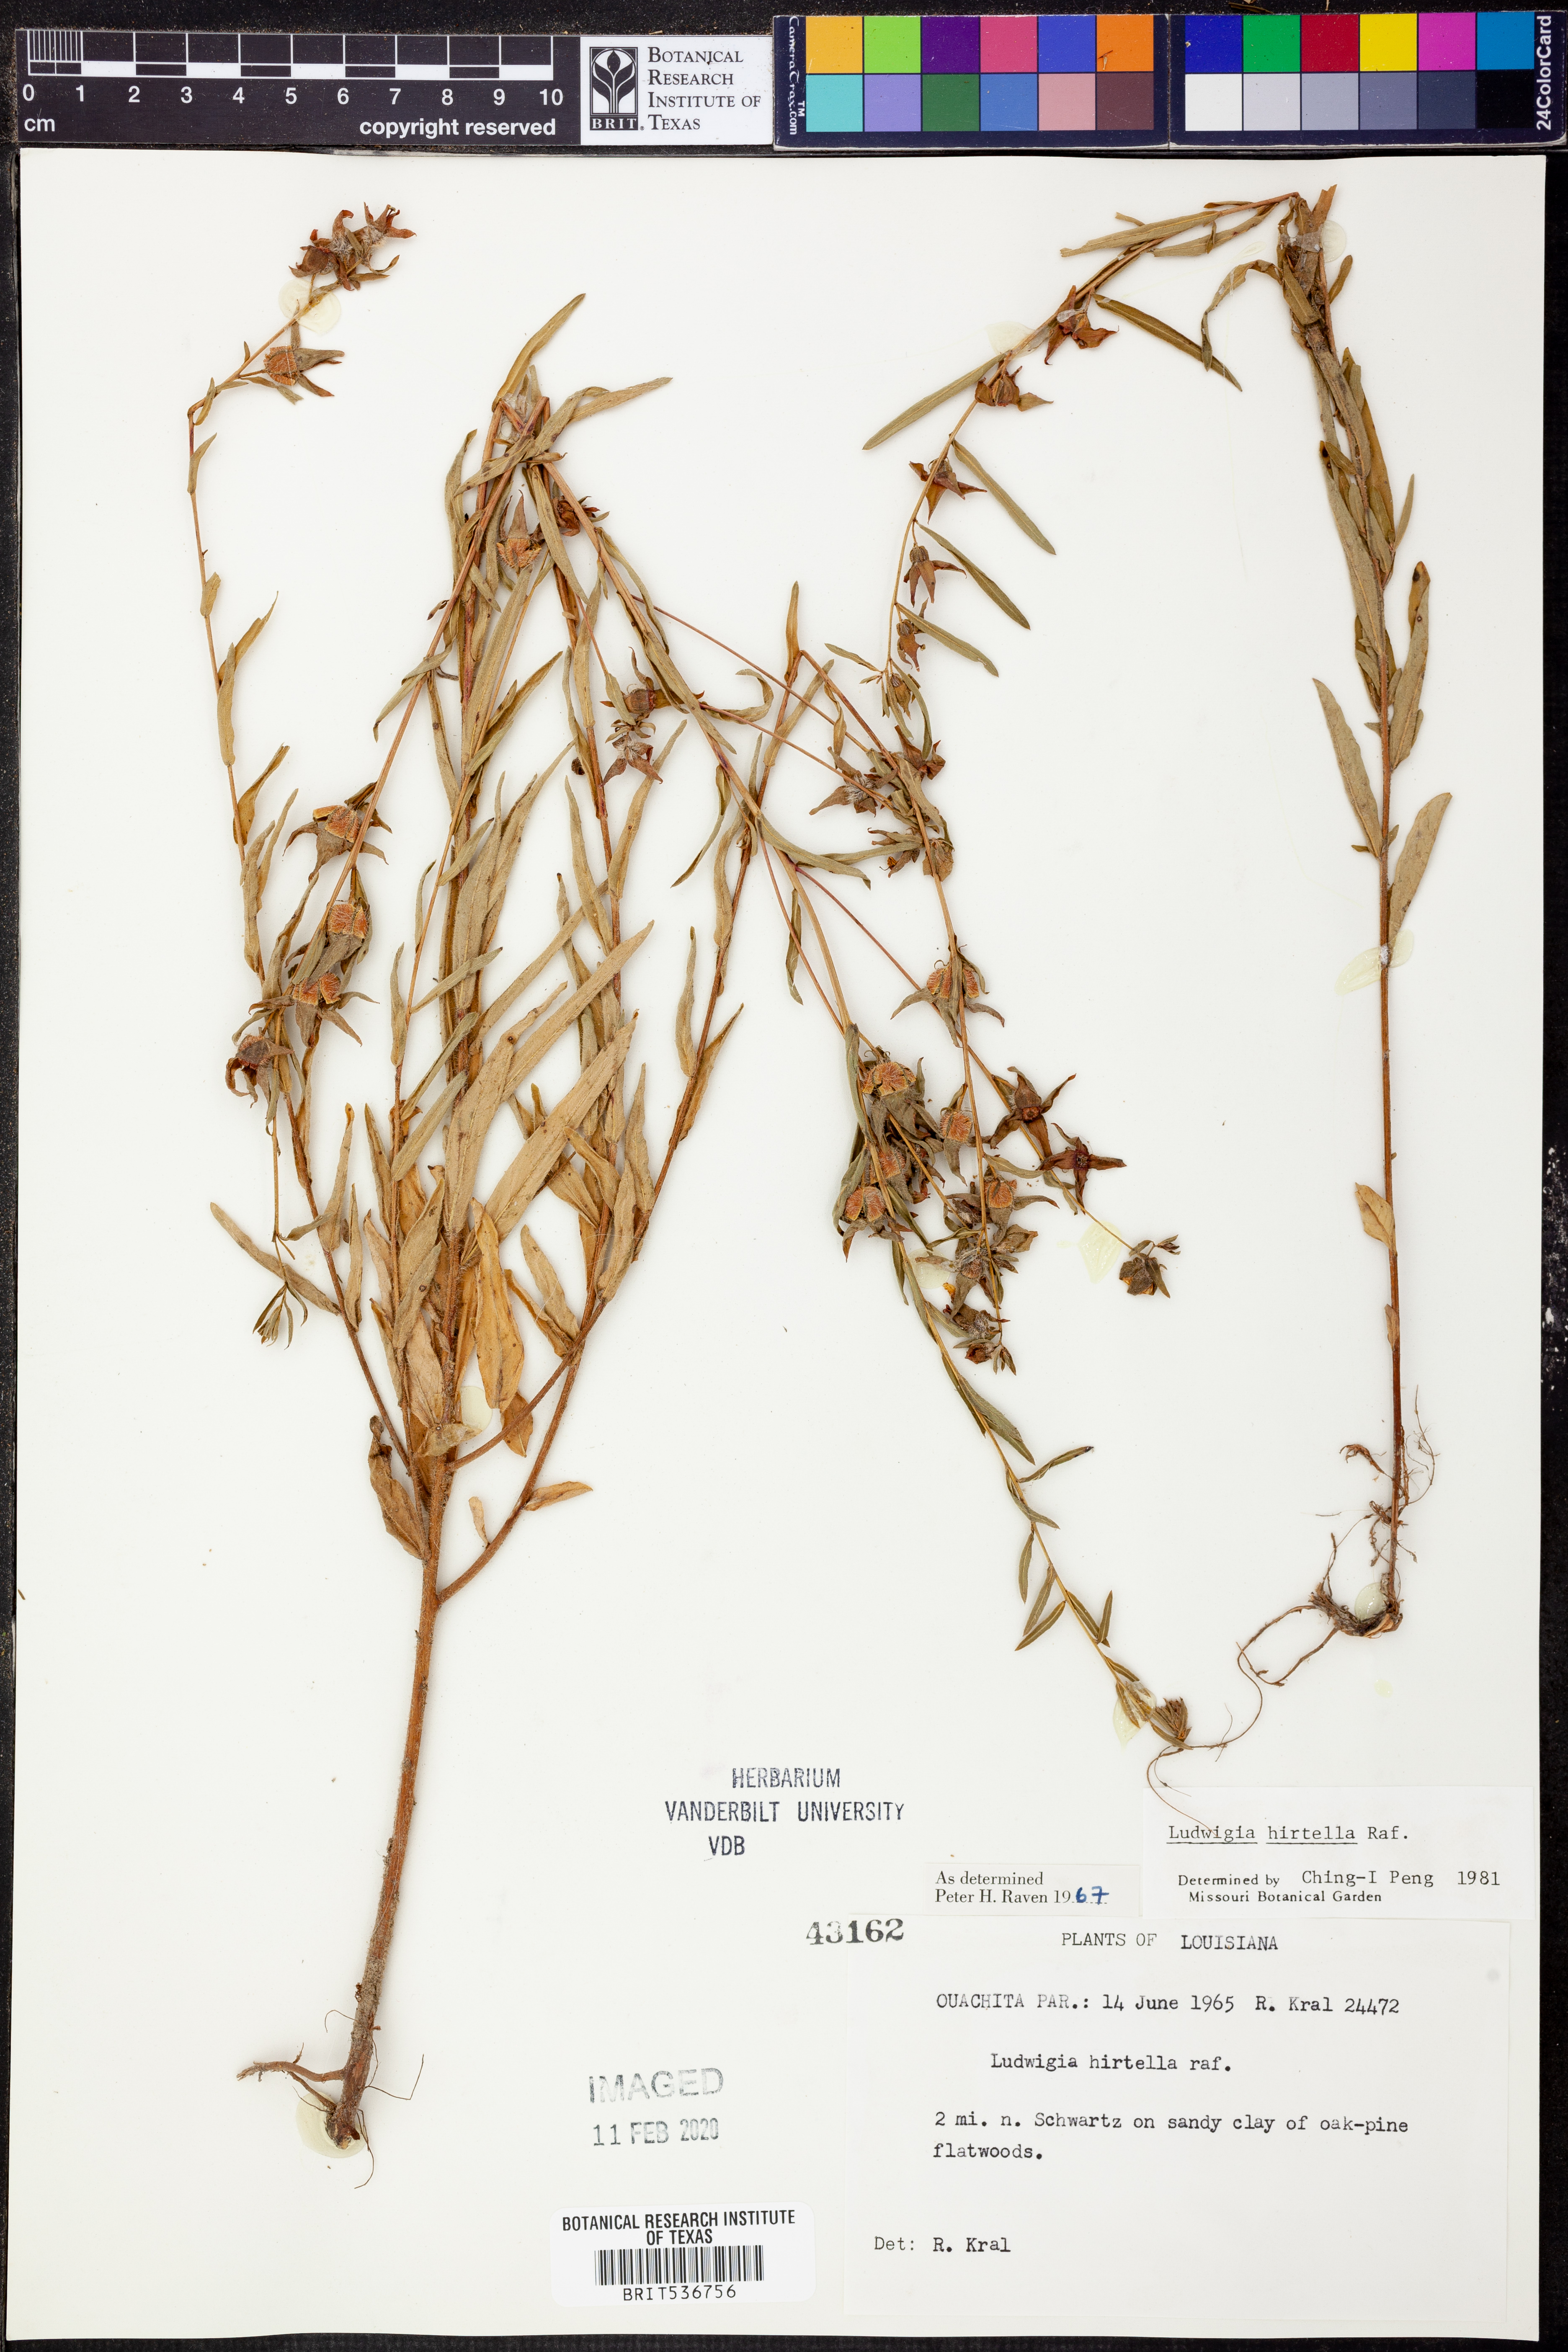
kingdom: Plantae
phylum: Tracheophyta
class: Magnoliopsida
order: Myrtales
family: Onagraceae
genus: Ludwigia
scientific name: Ludwigia hirtella
